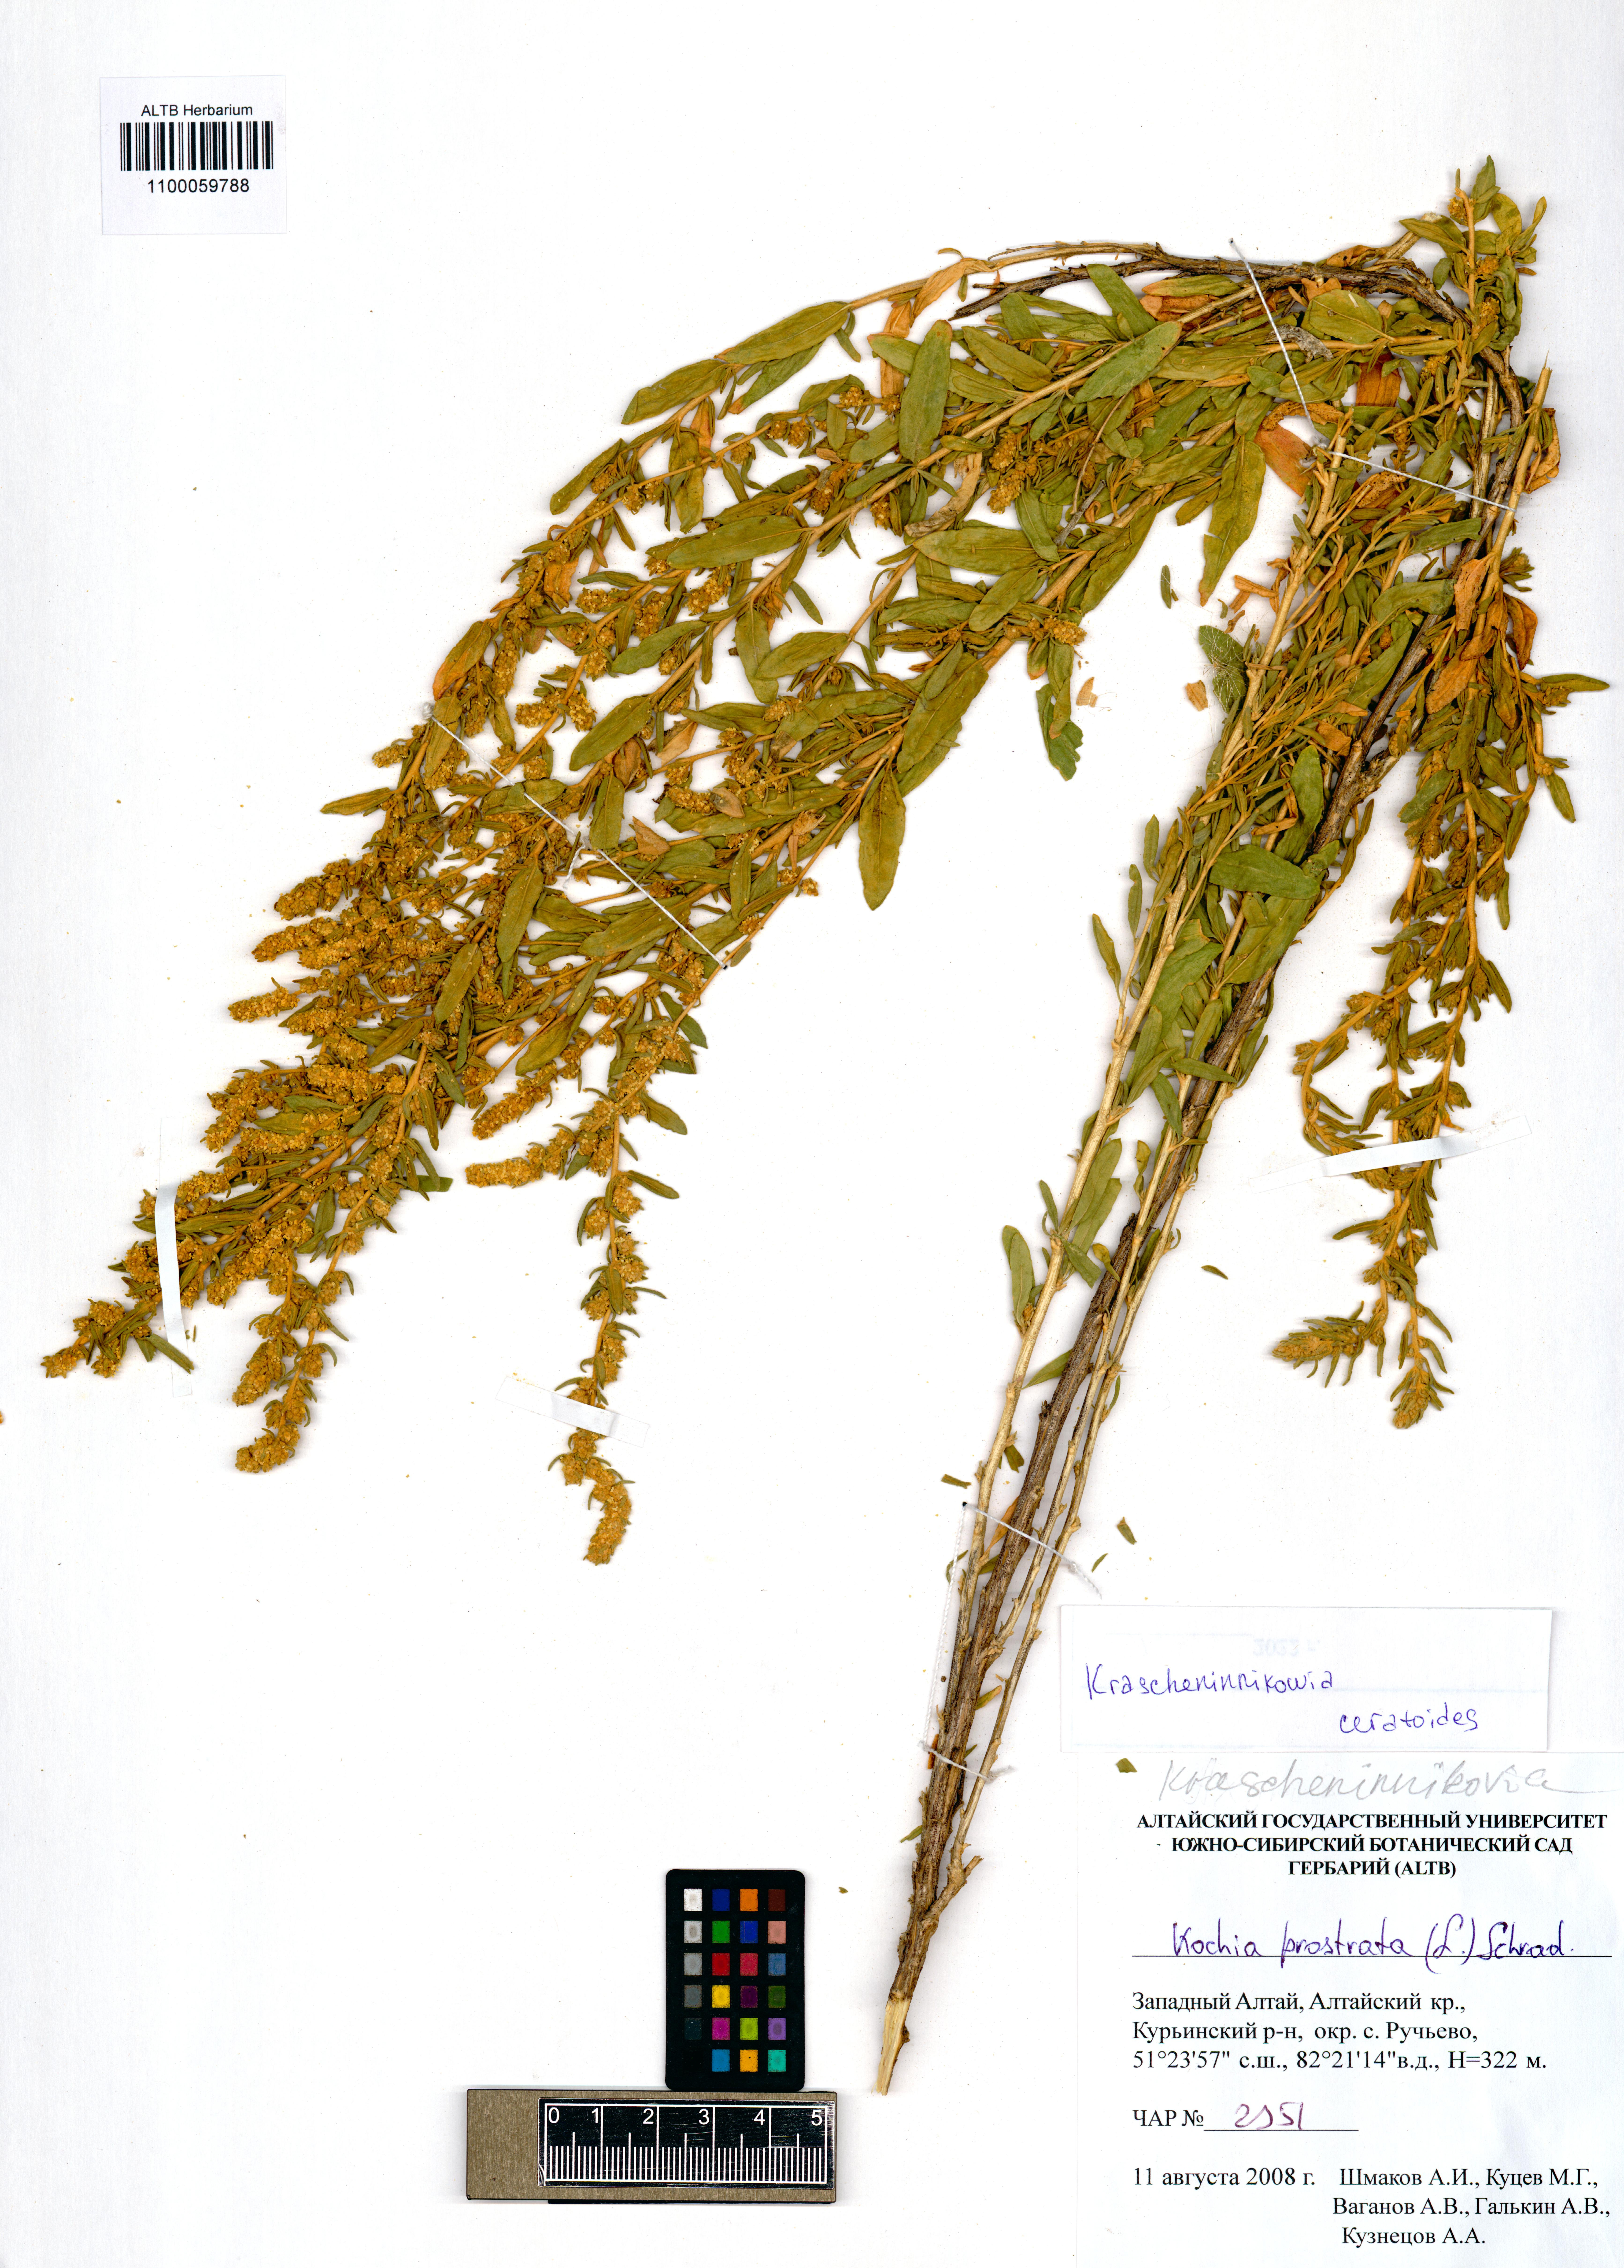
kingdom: Plantae
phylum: Tracheophyta
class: Magnoliopsida
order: Caryophyllales
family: Amaranthaceae
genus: Krascheninnikovia
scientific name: Krascheninnikovia ceratoides
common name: Pamirian winterfat
